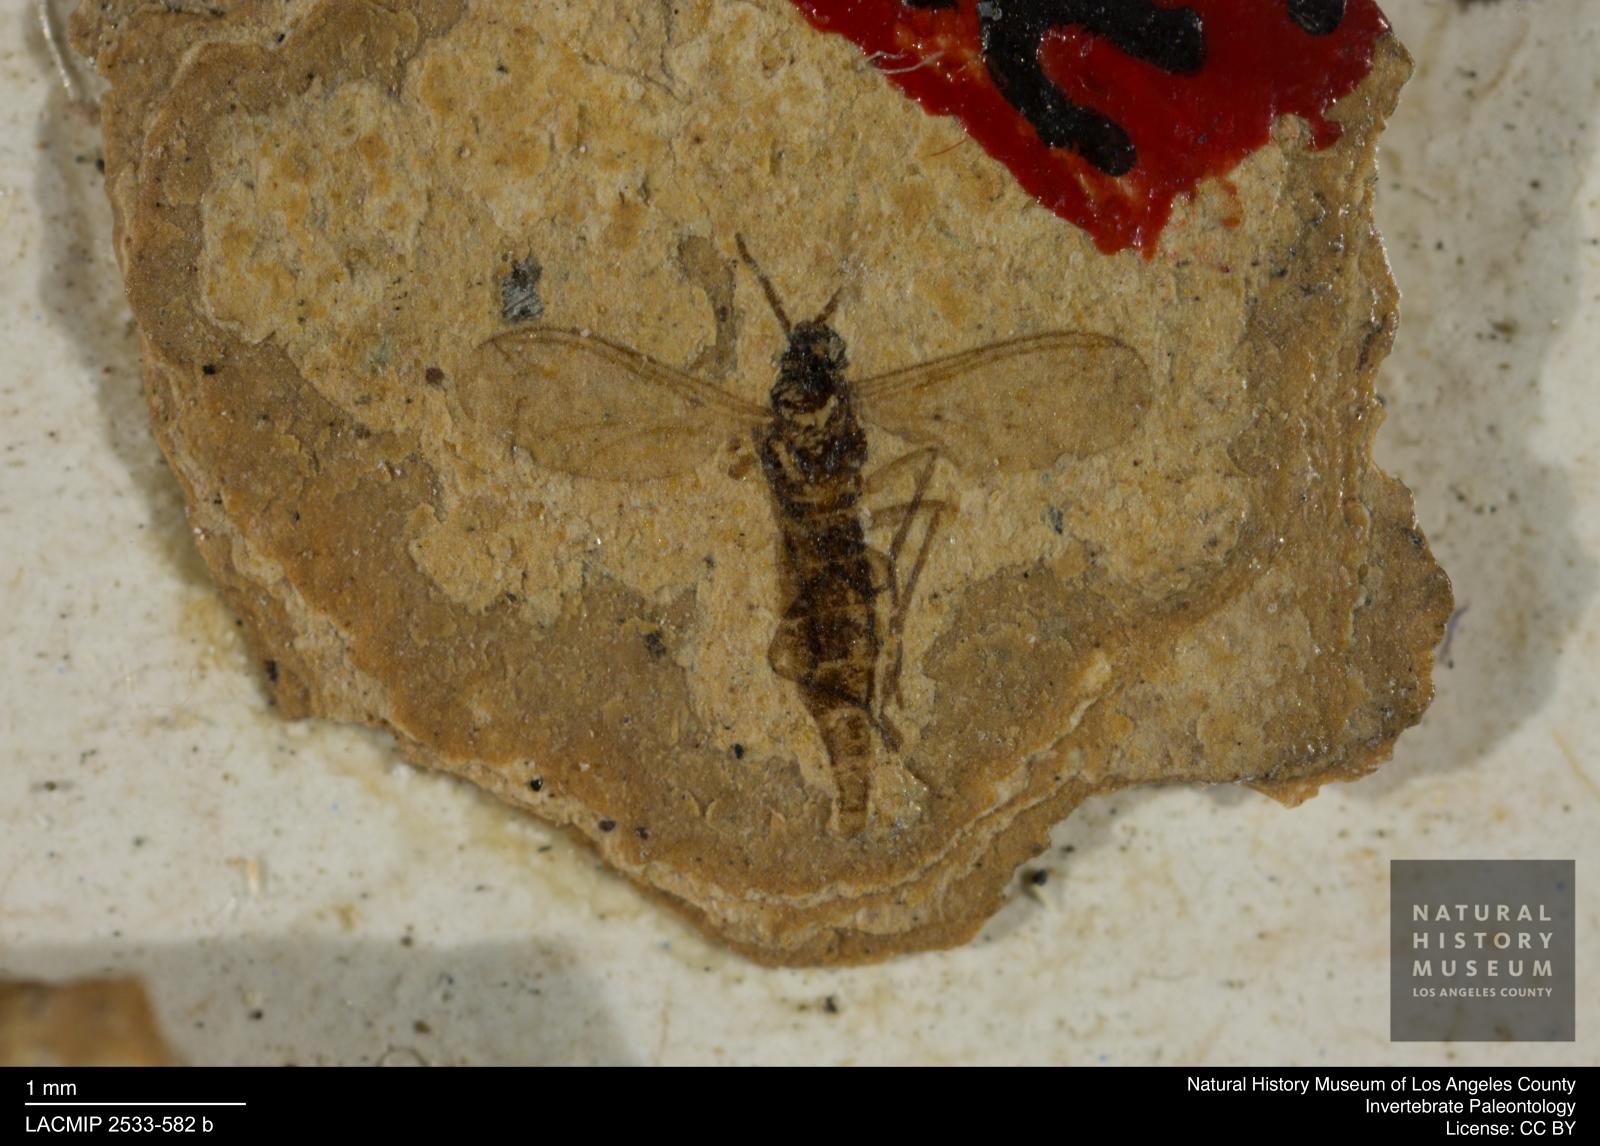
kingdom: Animalia
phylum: Arthropoda
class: Insecta
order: Diptera
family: Sciaridae
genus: Sciara
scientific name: Sciara gracilior
